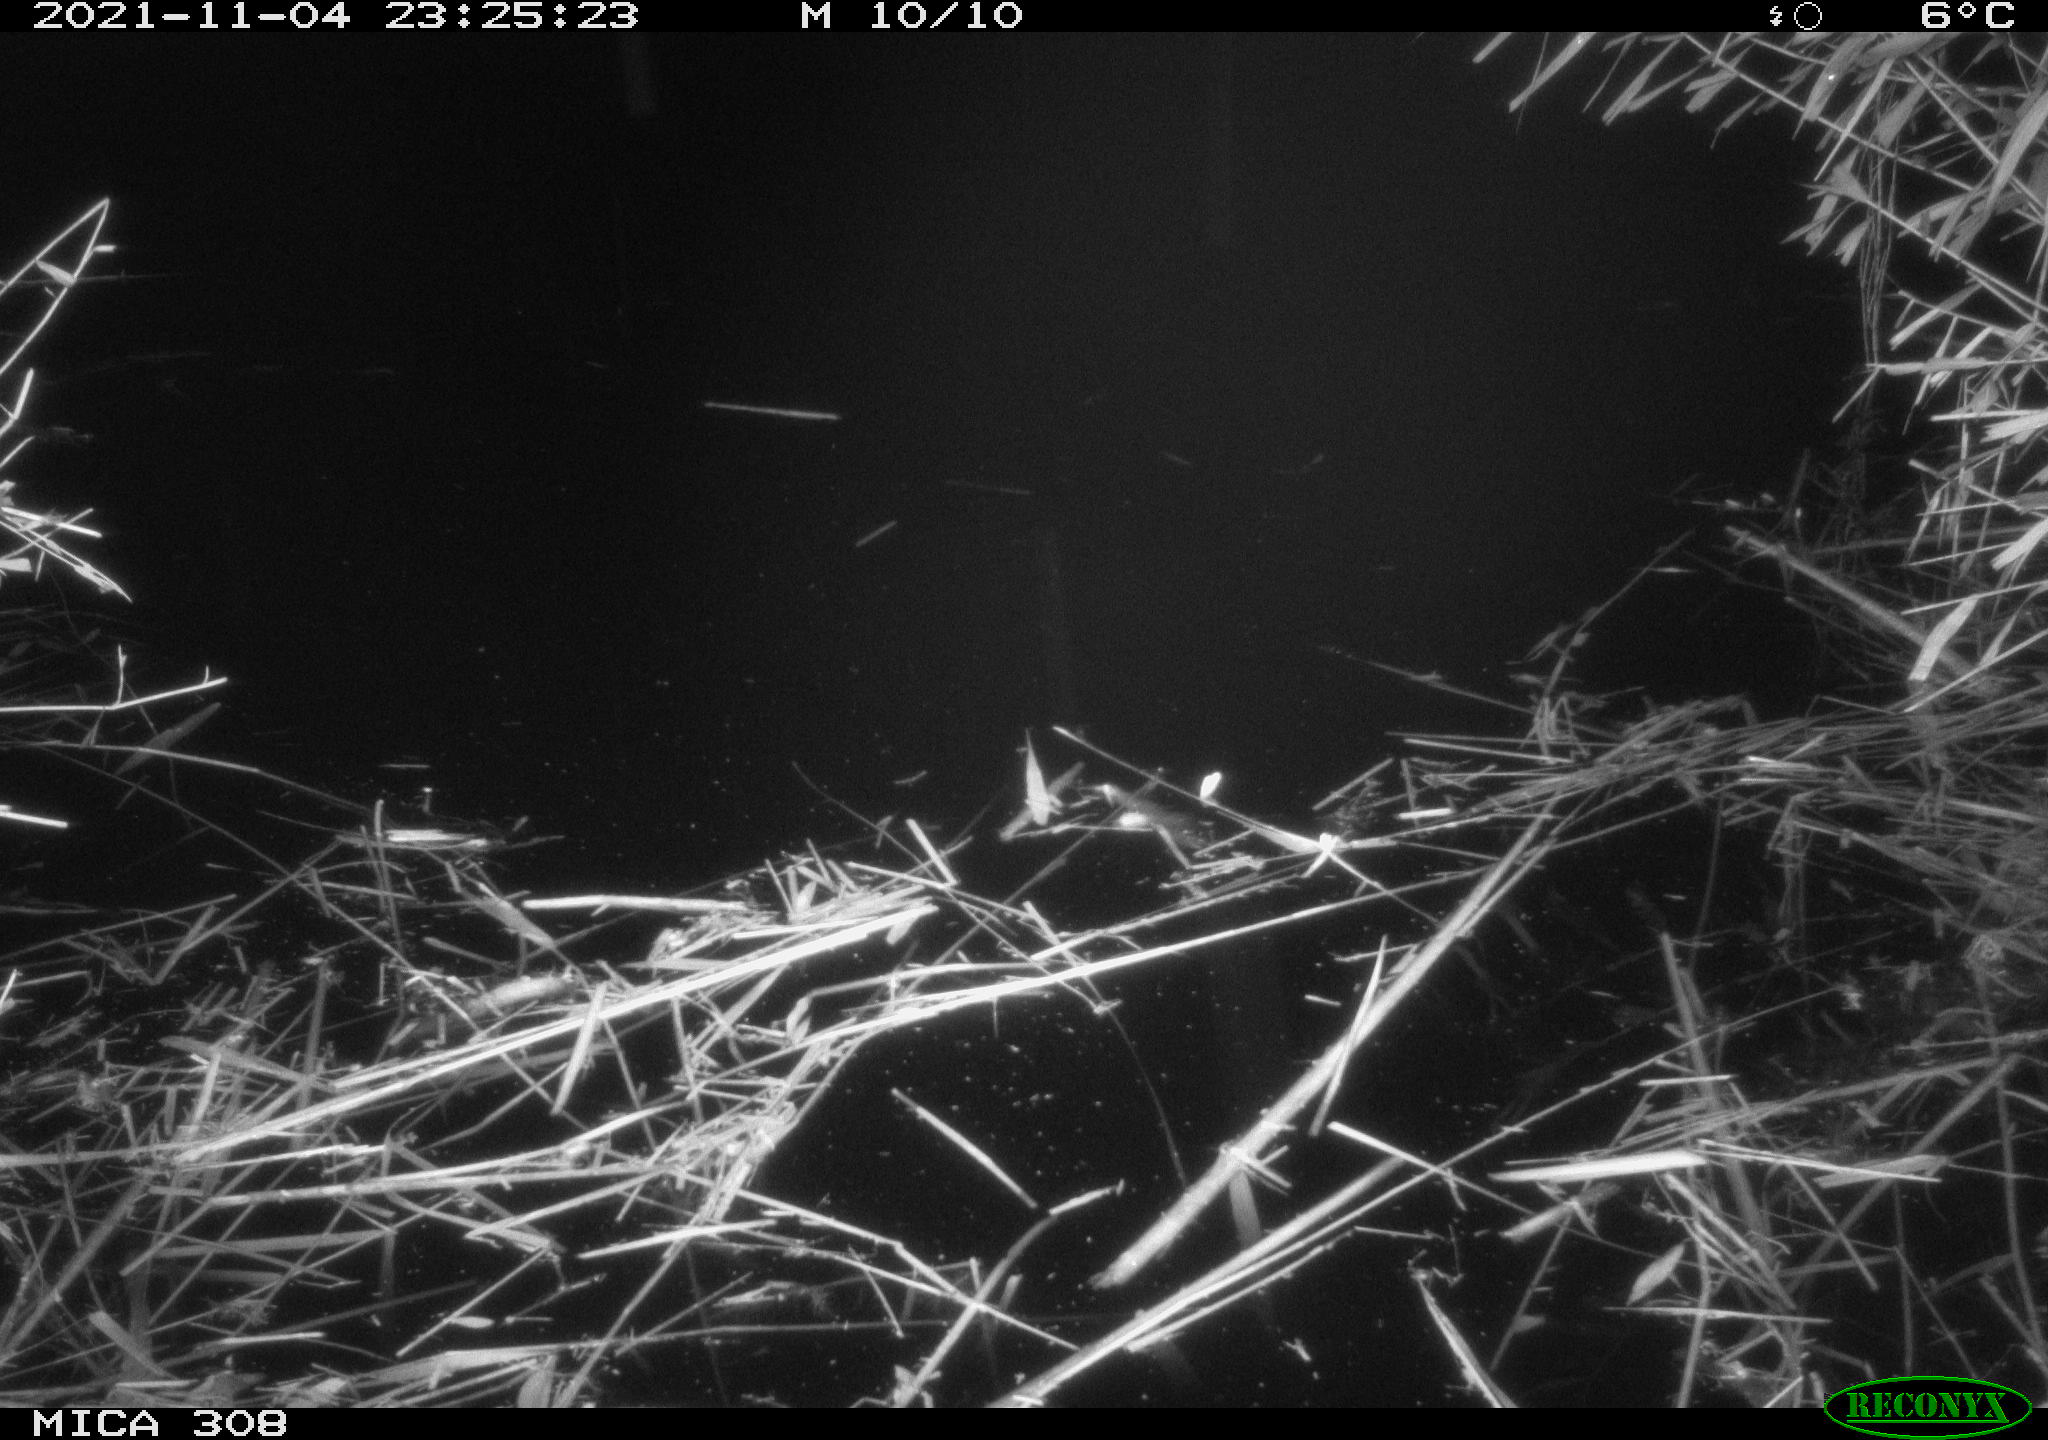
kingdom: Animalia
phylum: Chordata
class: Mammalia
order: Rodentia
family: Muridae
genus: Rattus
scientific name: Rattus norvegicus
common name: Brown rat
